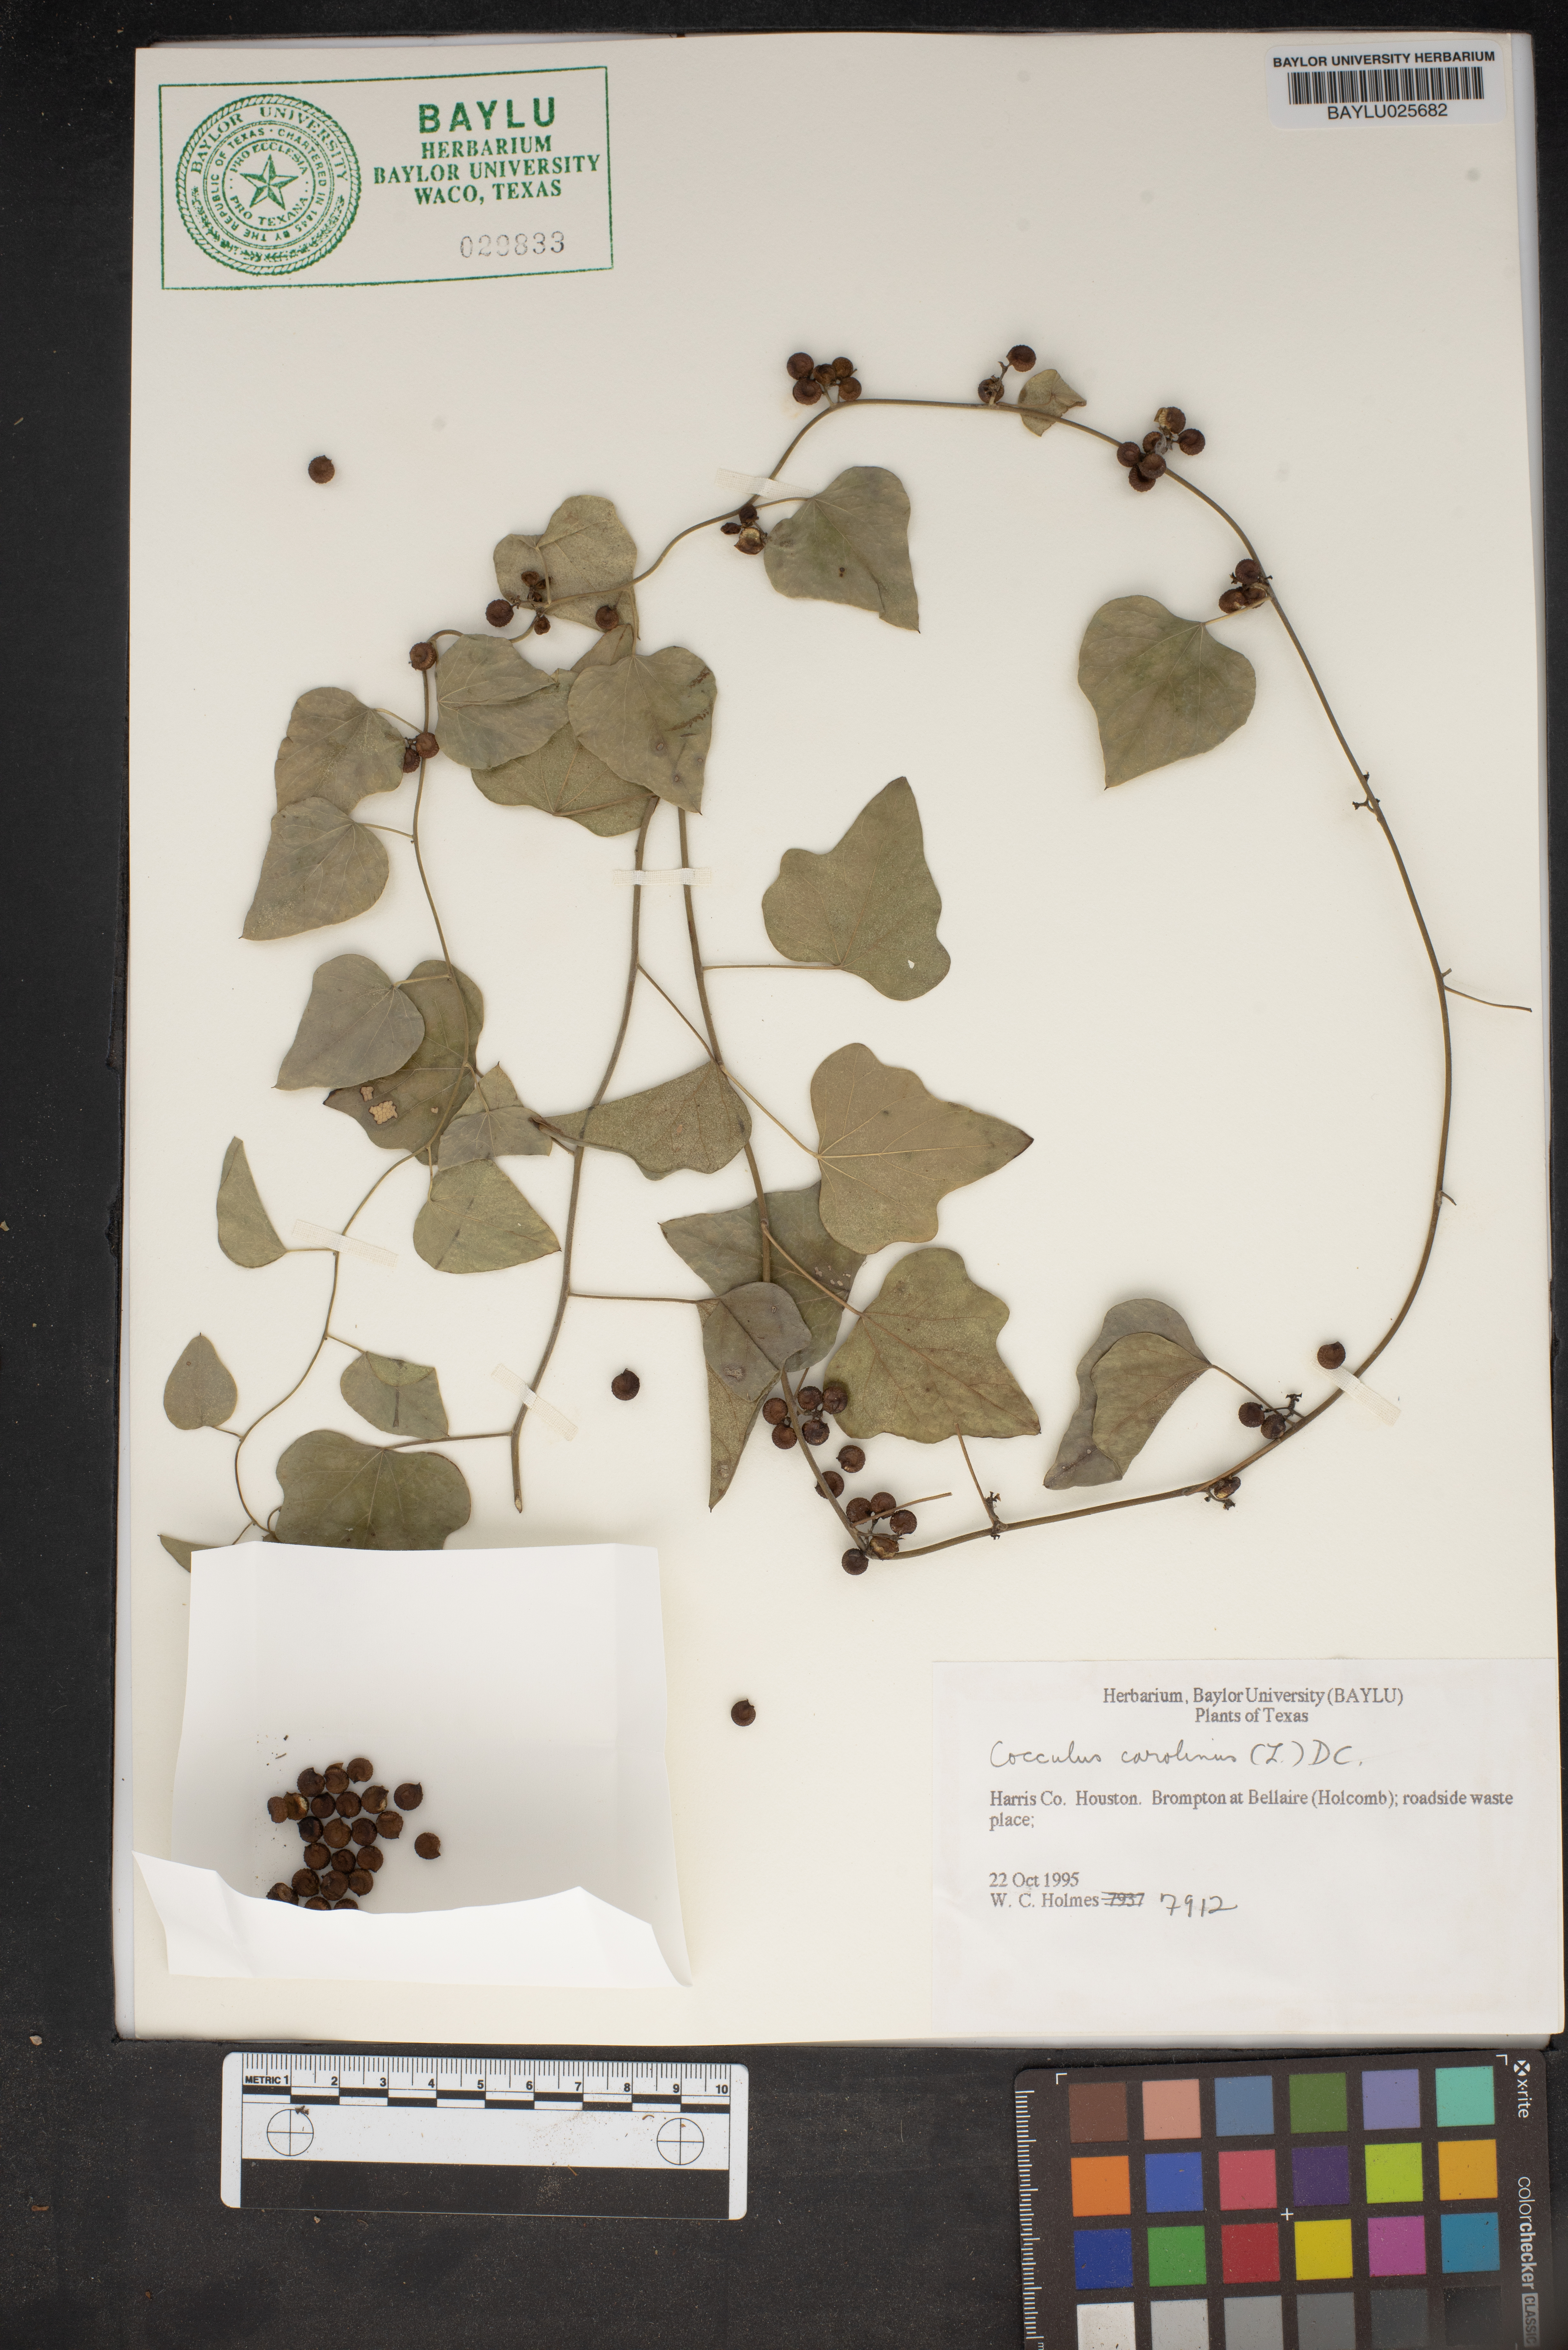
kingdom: Plantae
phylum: Tracheophyta
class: Magnoliopsida
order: Ranunculales
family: Menispermaceae
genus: Cocculus
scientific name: Cocculus carolinus
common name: Carolina moonseed
